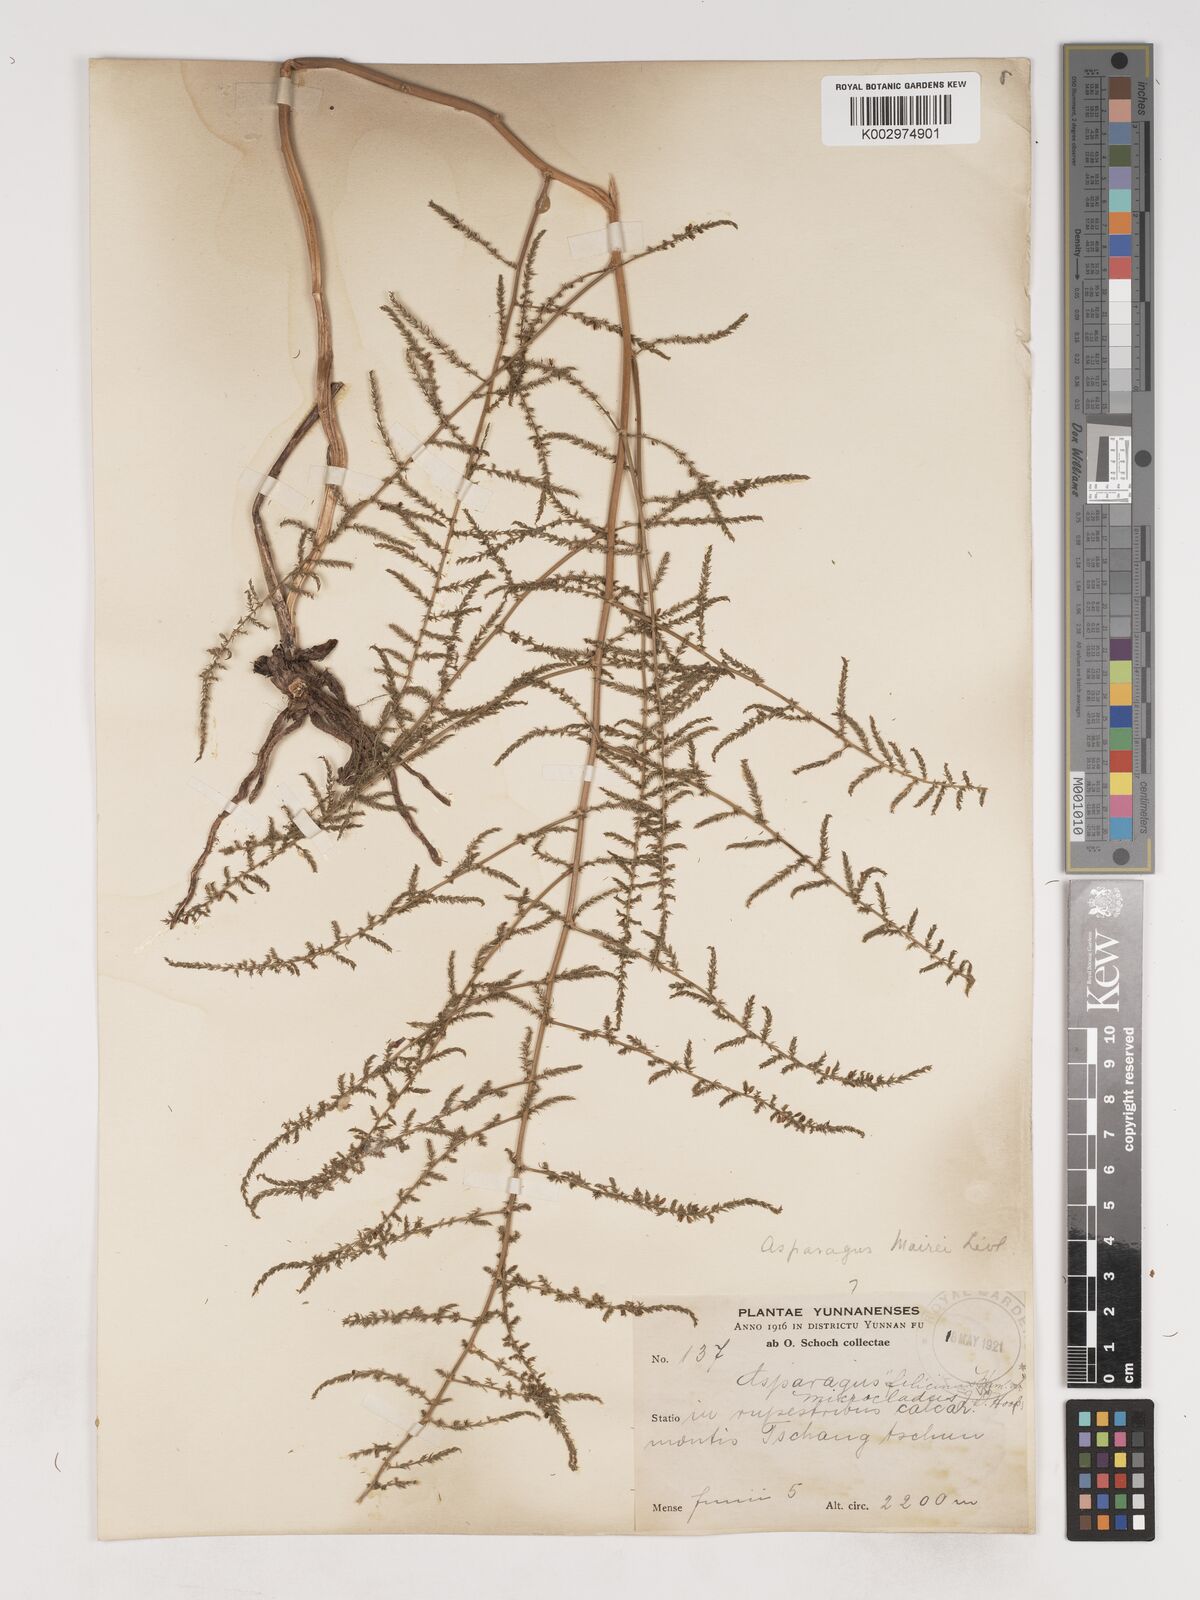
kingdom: Plantae
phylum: Tracheophyta
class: Liliopsida
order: Asparagales
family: Asparagaceae
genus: Asparagus
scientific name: Asparagus meioclados
